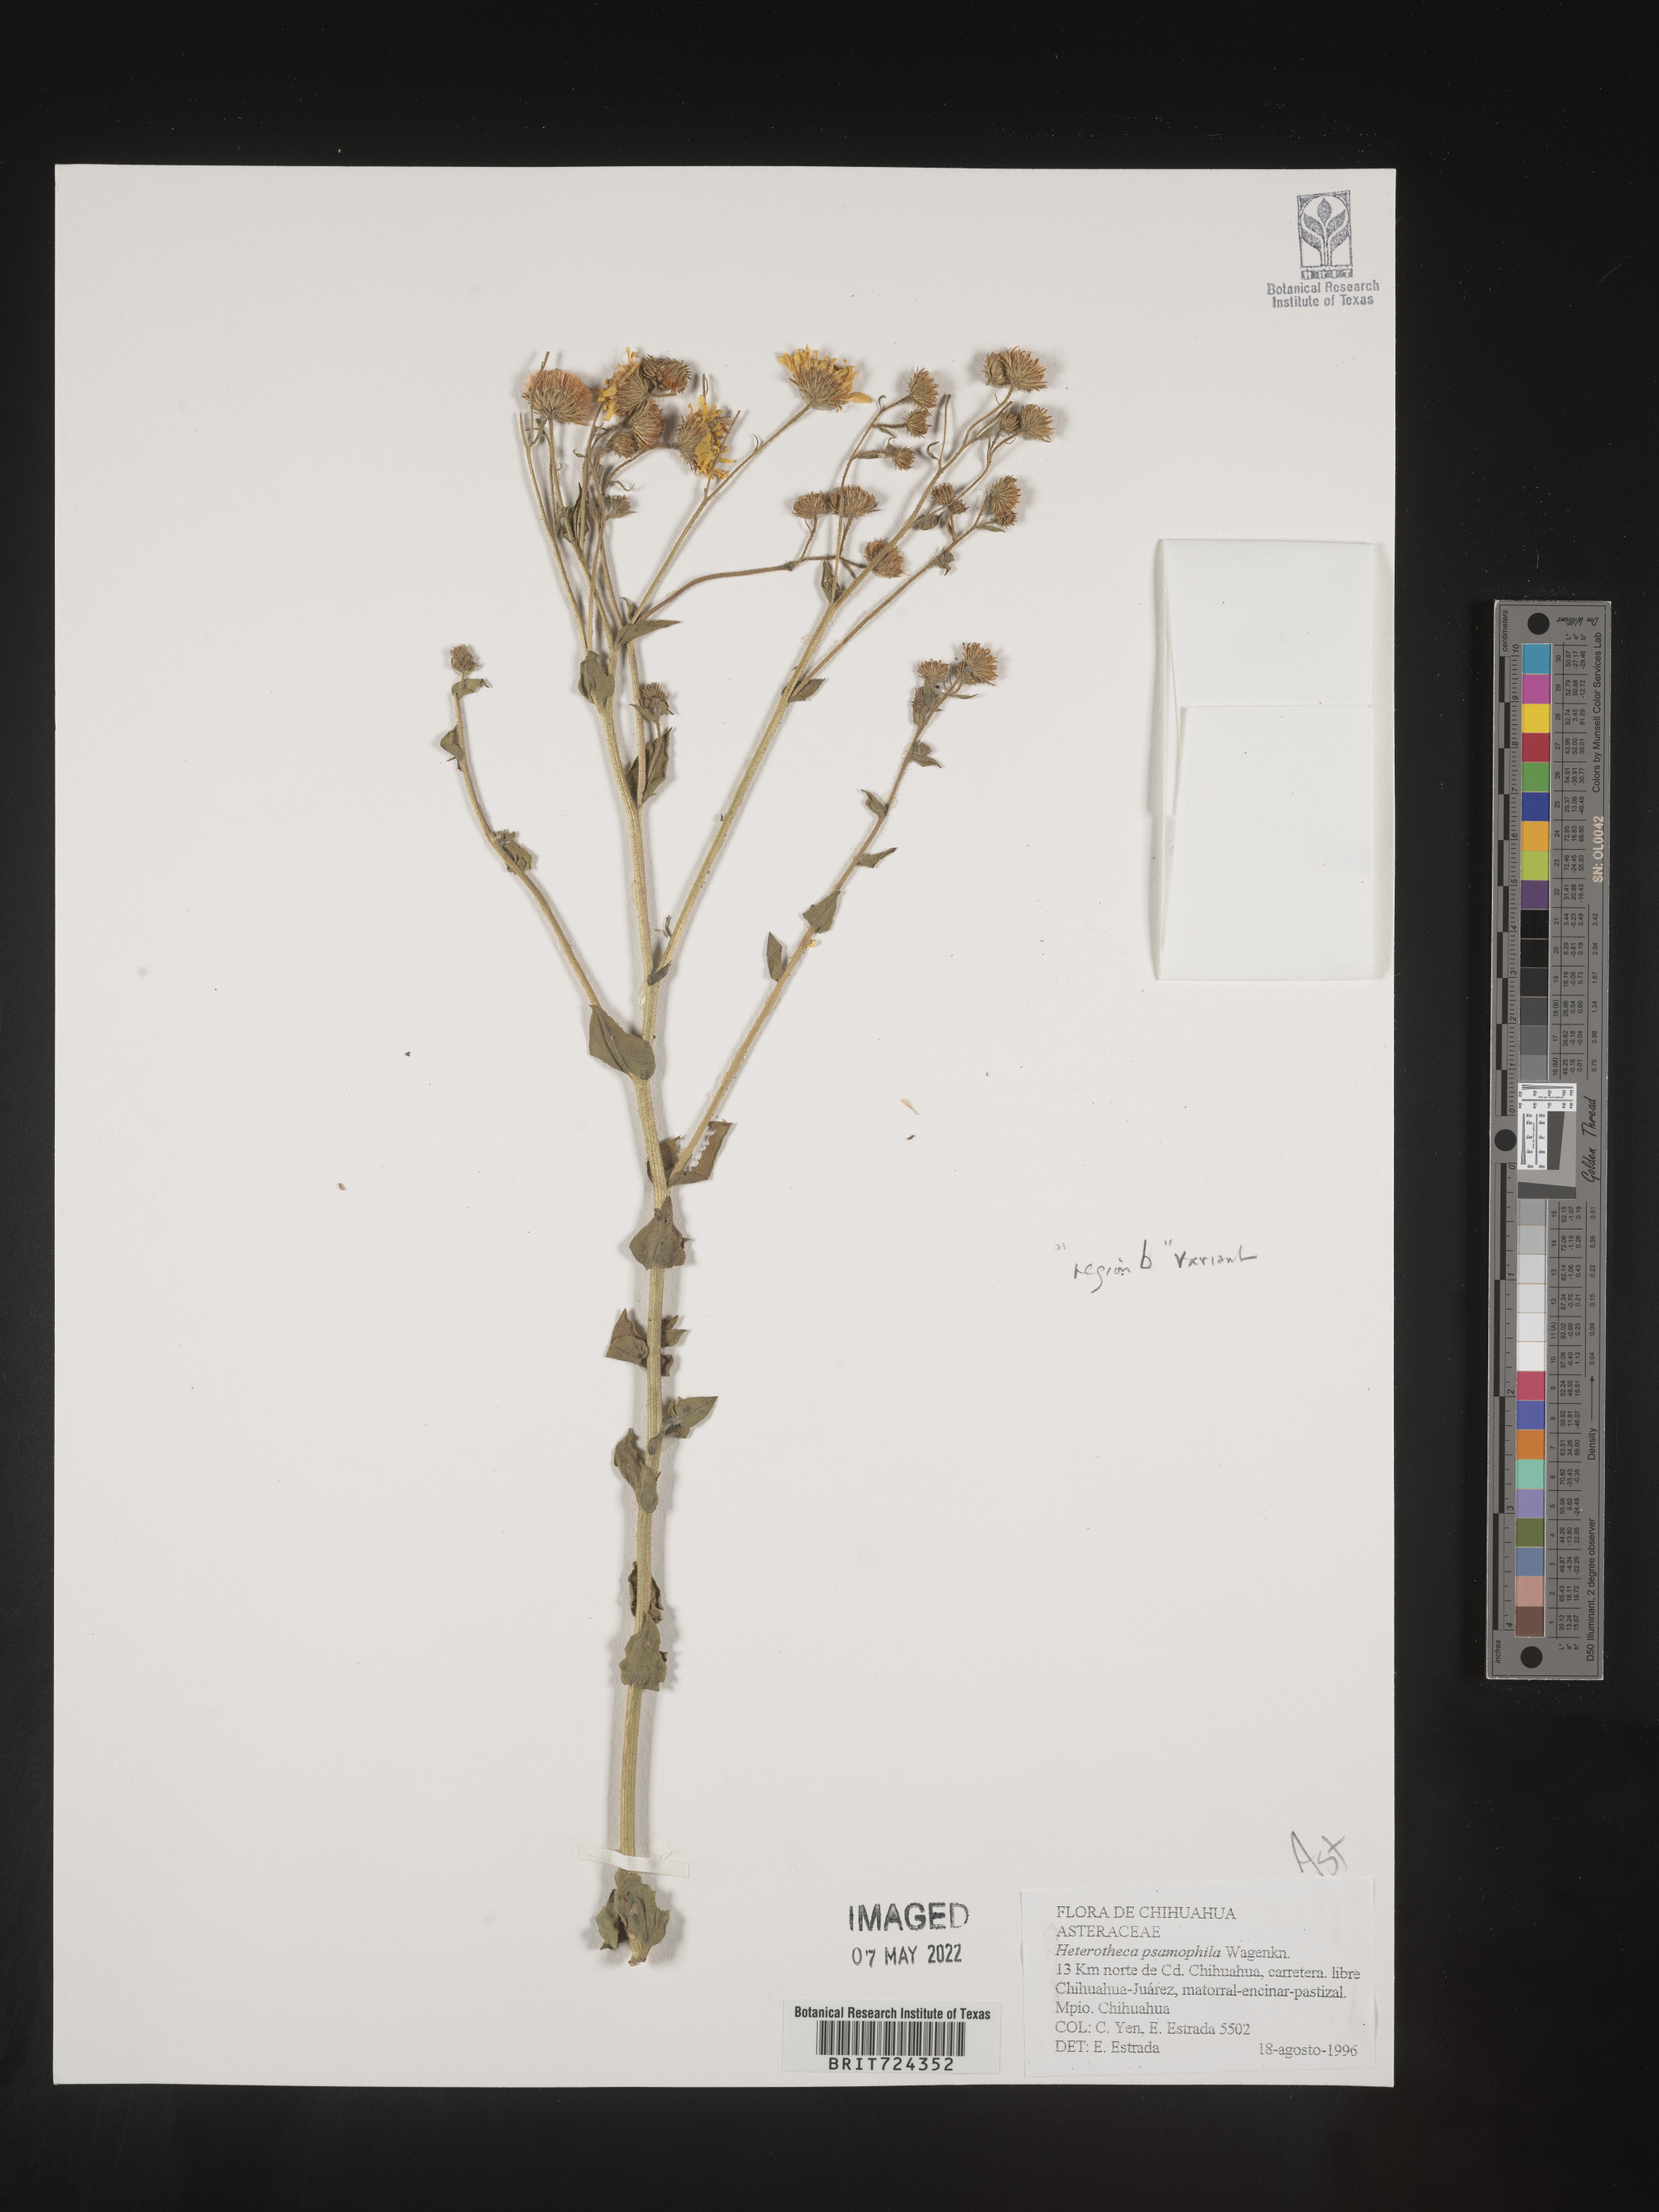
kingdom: Plantae
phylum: Tracheophyta
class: Magnoliopsida
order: Asterales
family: Asteraceae
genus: Heterotheca
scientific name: Heterotheca
